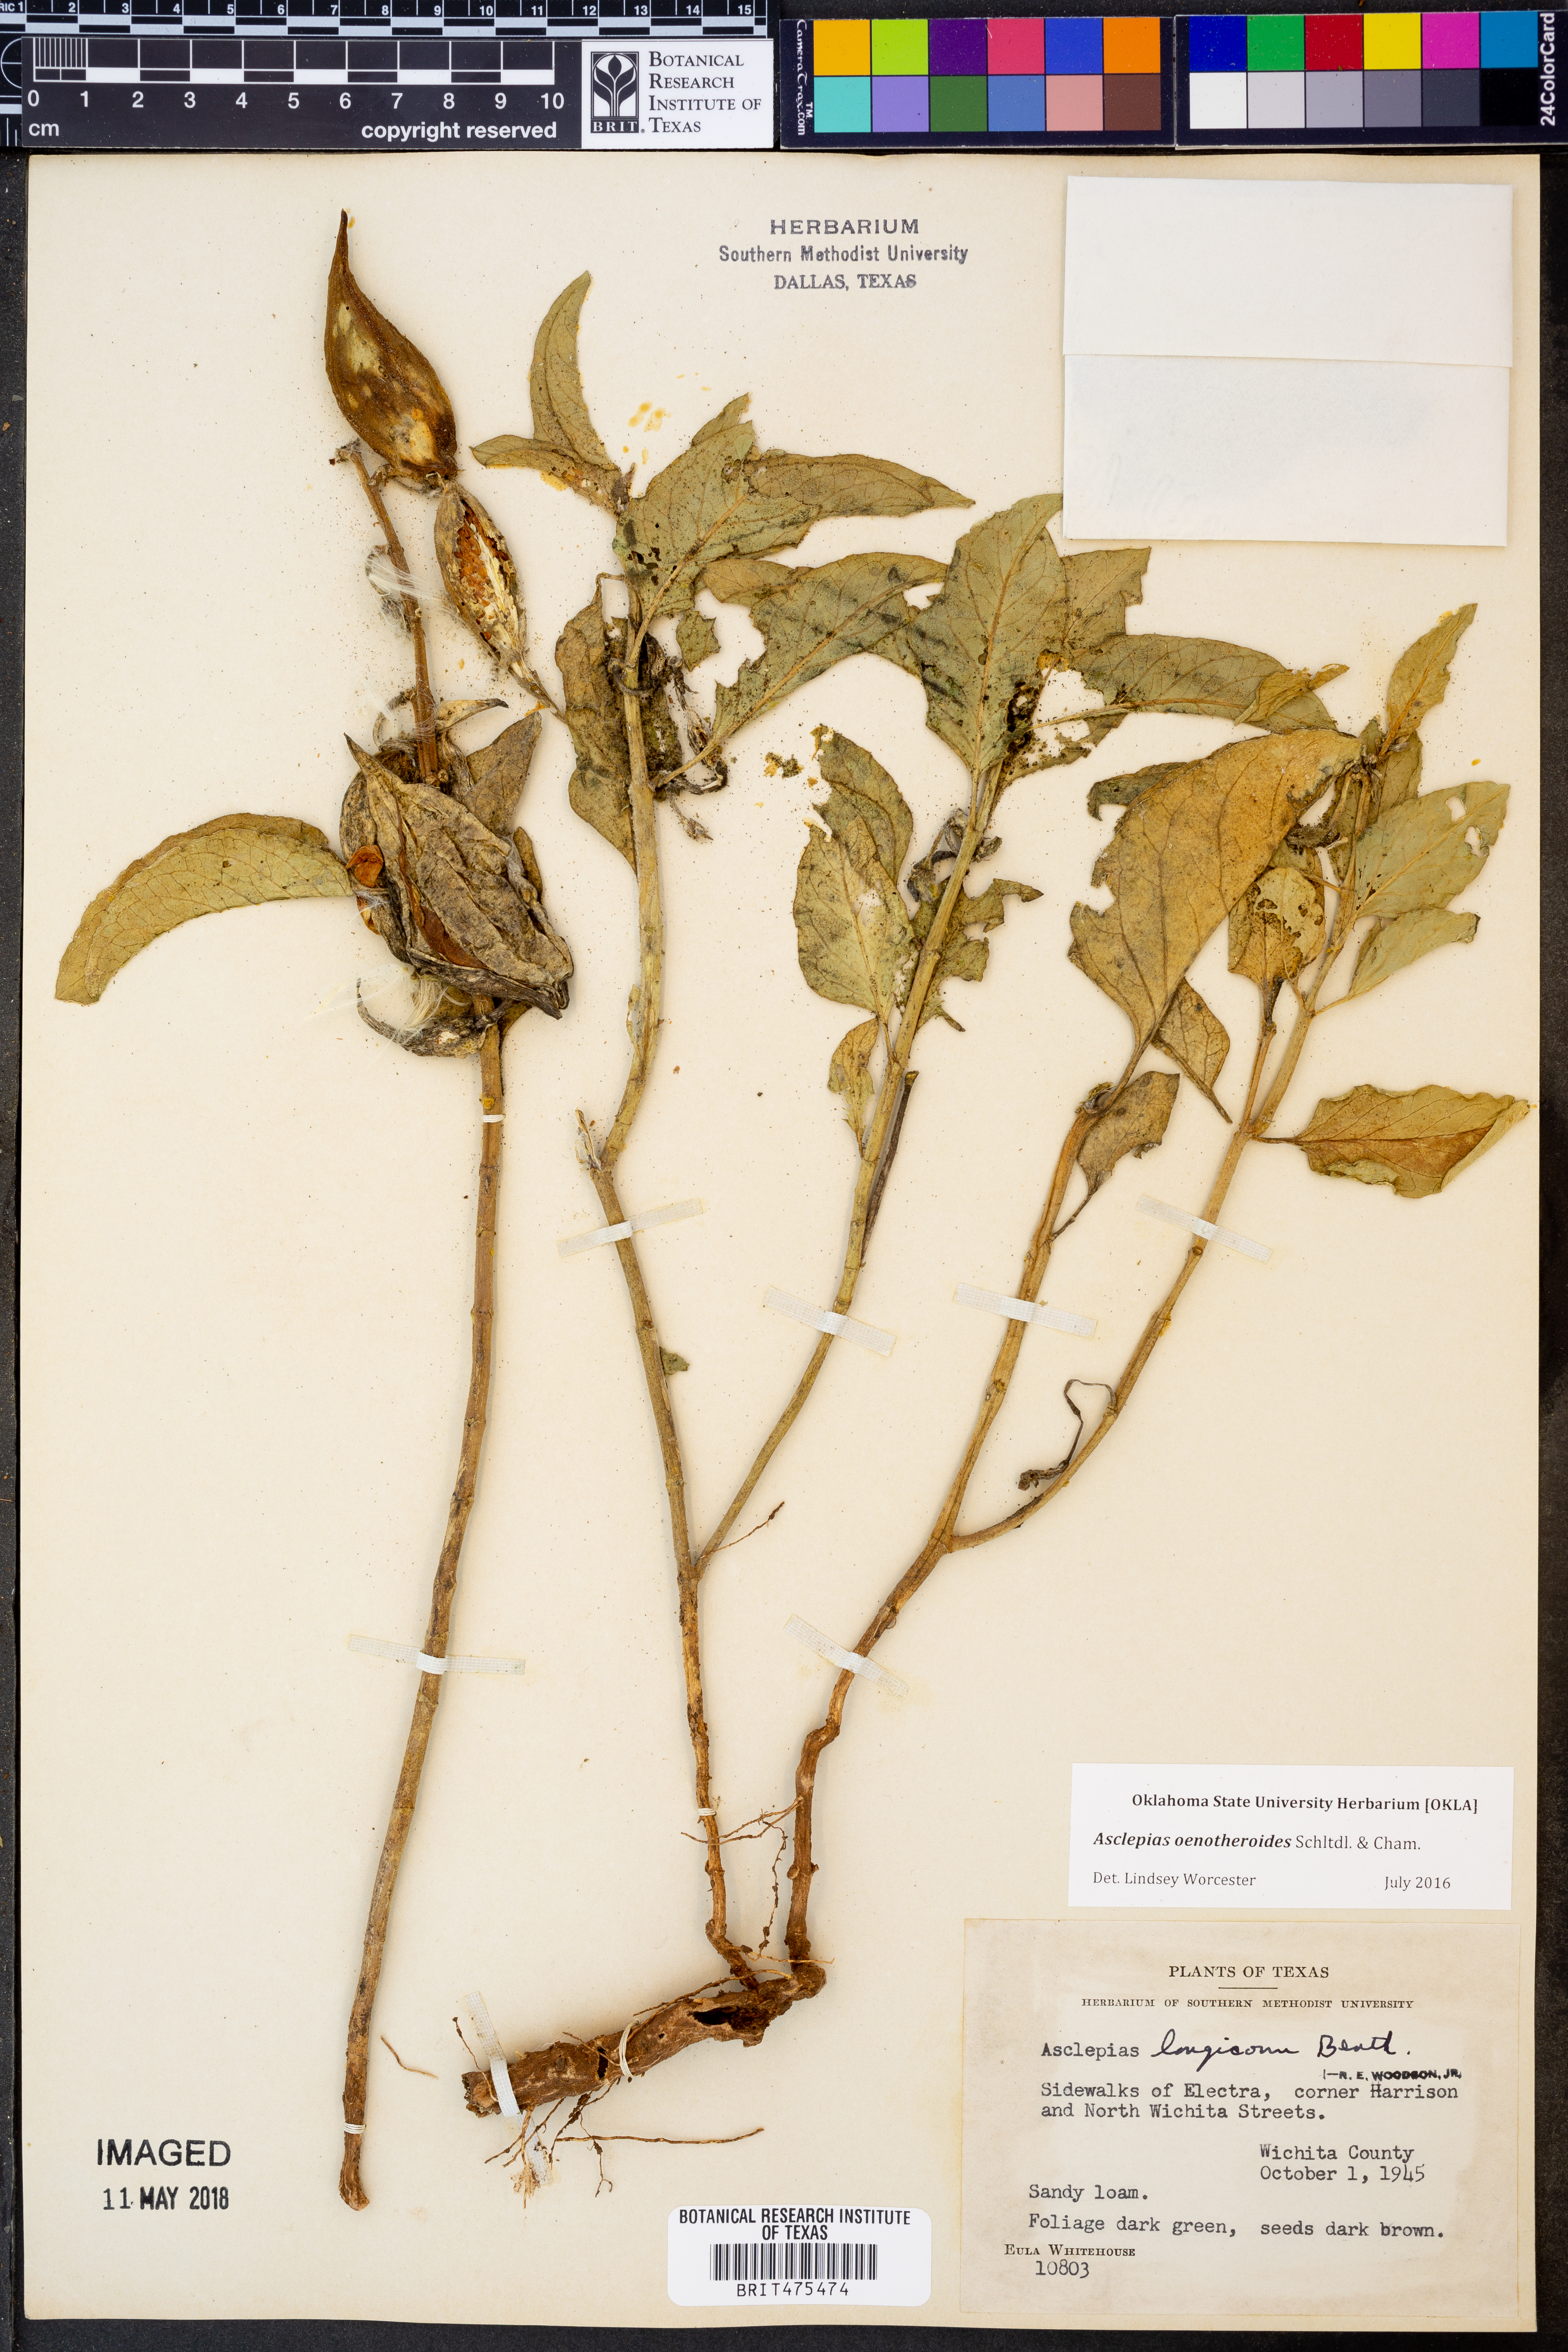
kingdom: Plantae
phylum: Tracheophyta
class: Magnoliopsida
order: Gentianales
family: Apocynaceae
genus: Asclepias
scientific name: Asclepias oenotheroides
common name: Zizotes milkweed
